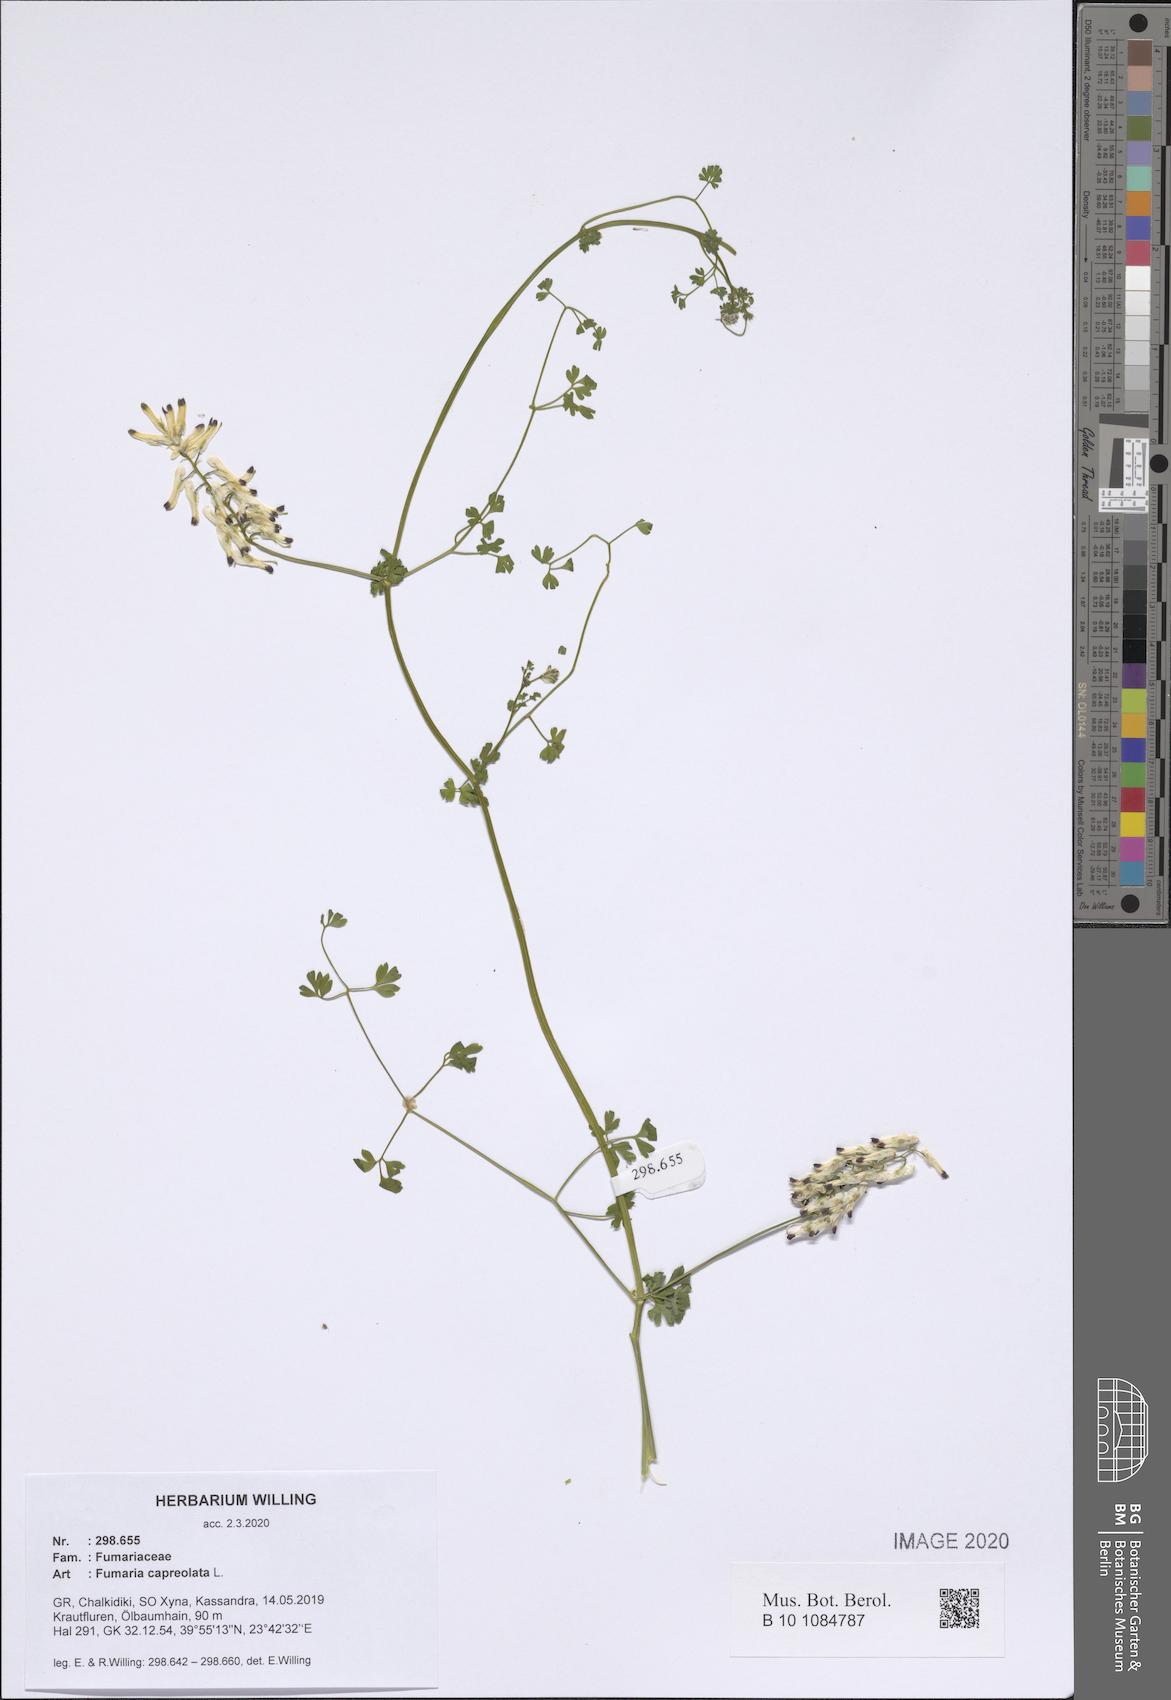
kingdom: Plantae
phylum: Tracheophyta
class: Magnoliopsida
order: Ranunculales
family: Papaveraceae
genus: Fumaria
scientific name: Fumaria capreolata
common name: White ramping-fumitory
